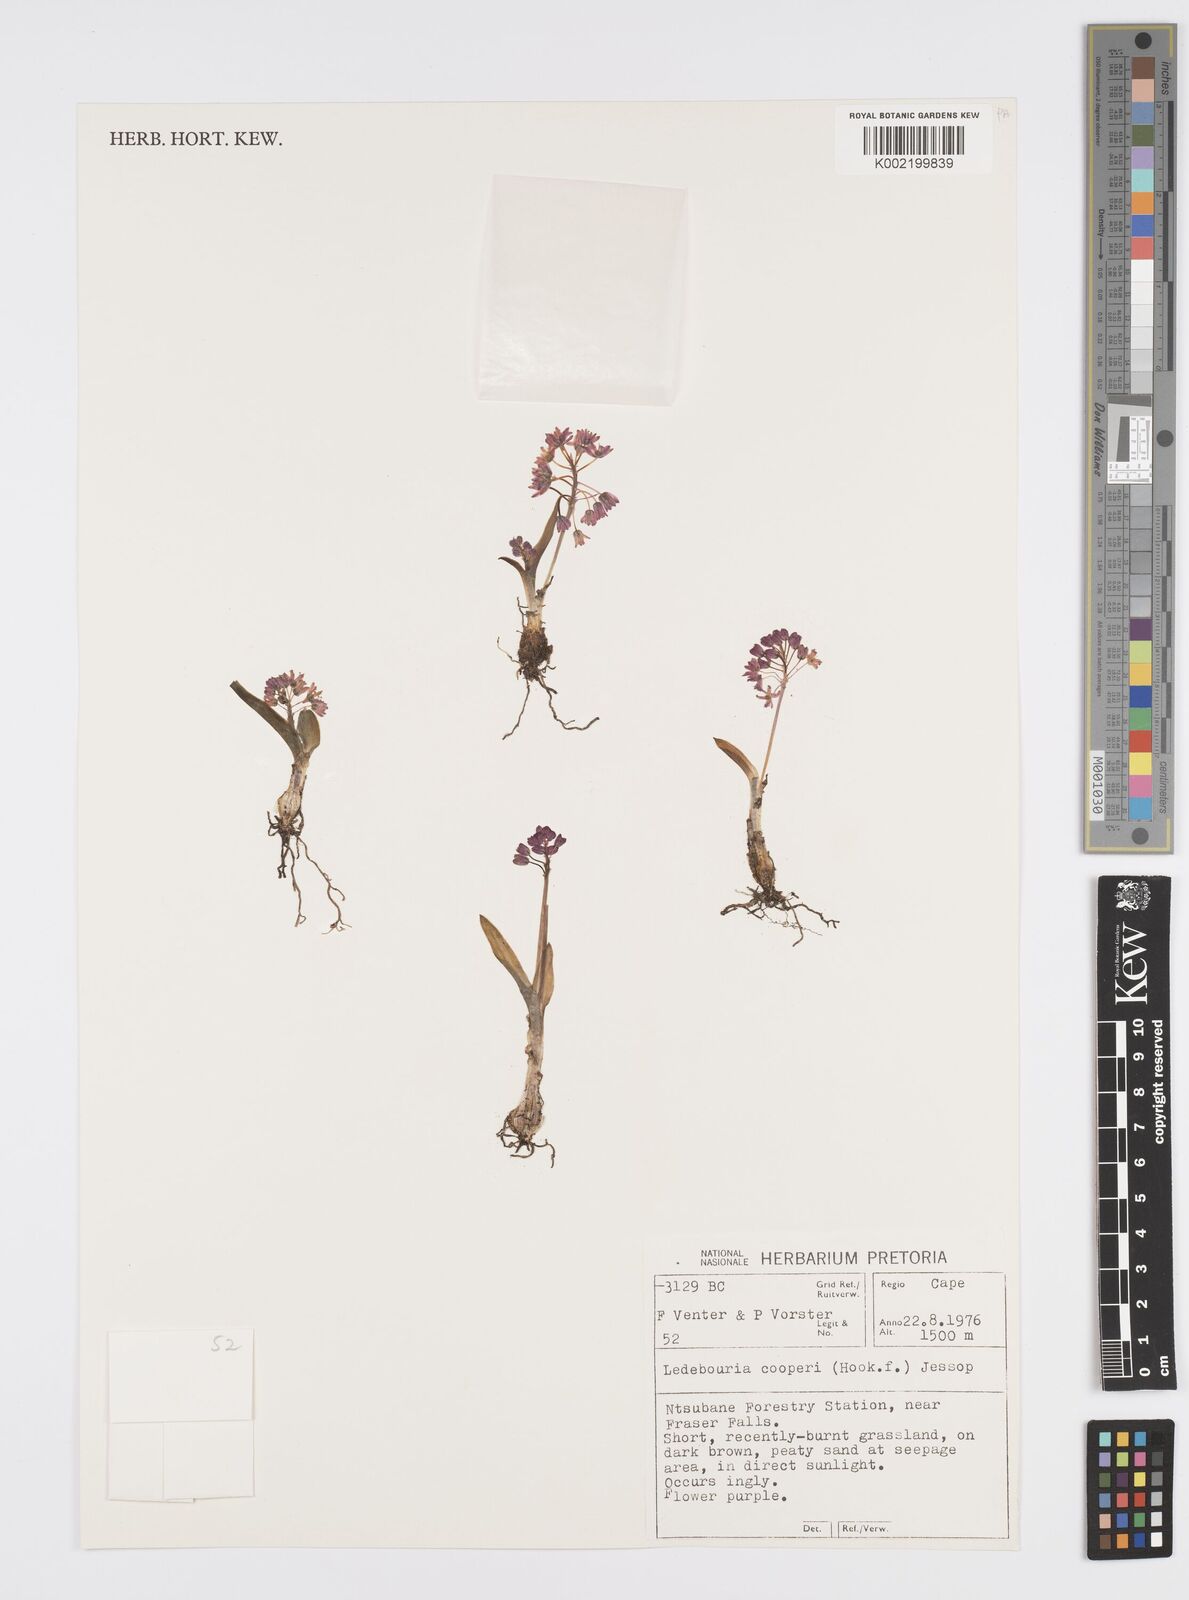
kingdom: Plantae
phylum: Tracheophyta
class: Liliopsida
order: Asparagales
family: Asparagaceae
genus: Ledebouria
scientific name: Ledebouria cooperi
